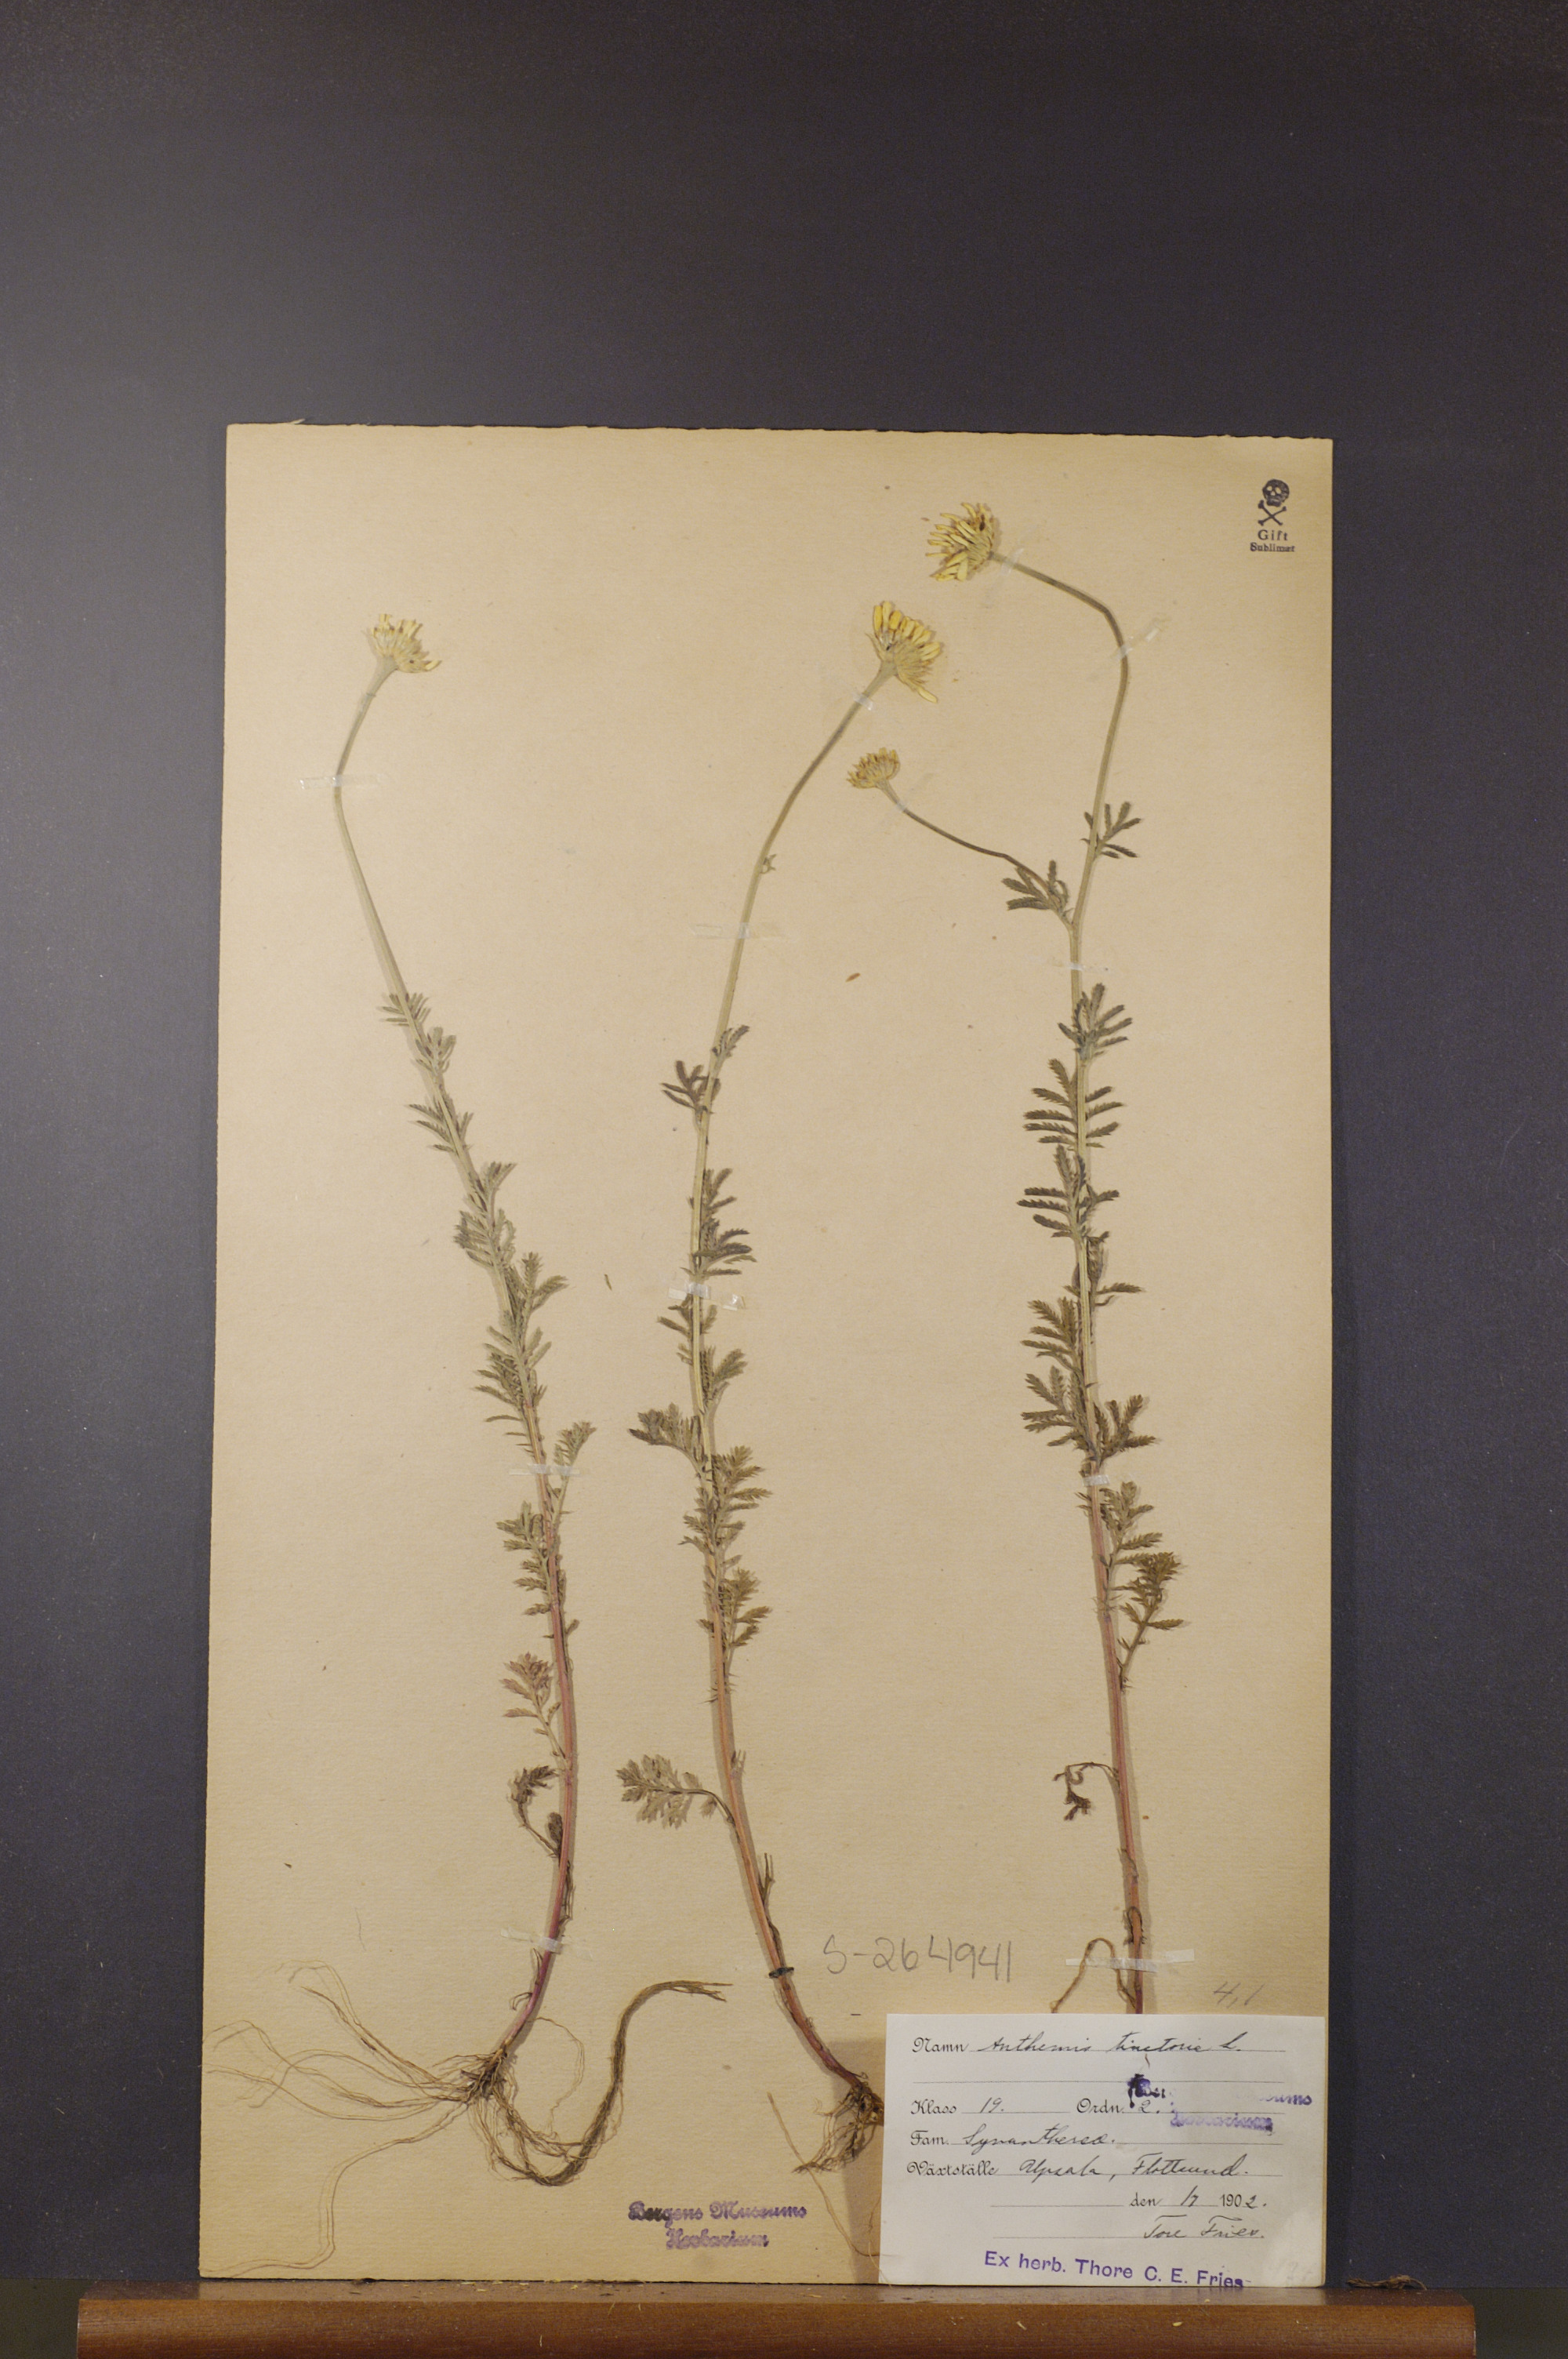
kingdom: Plantae
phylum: Tracheophyta
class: Magnoliopsida
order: Asterales
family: Asteraceae
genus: Cota
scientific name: Cota tinctoria
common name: Golden chamomile
